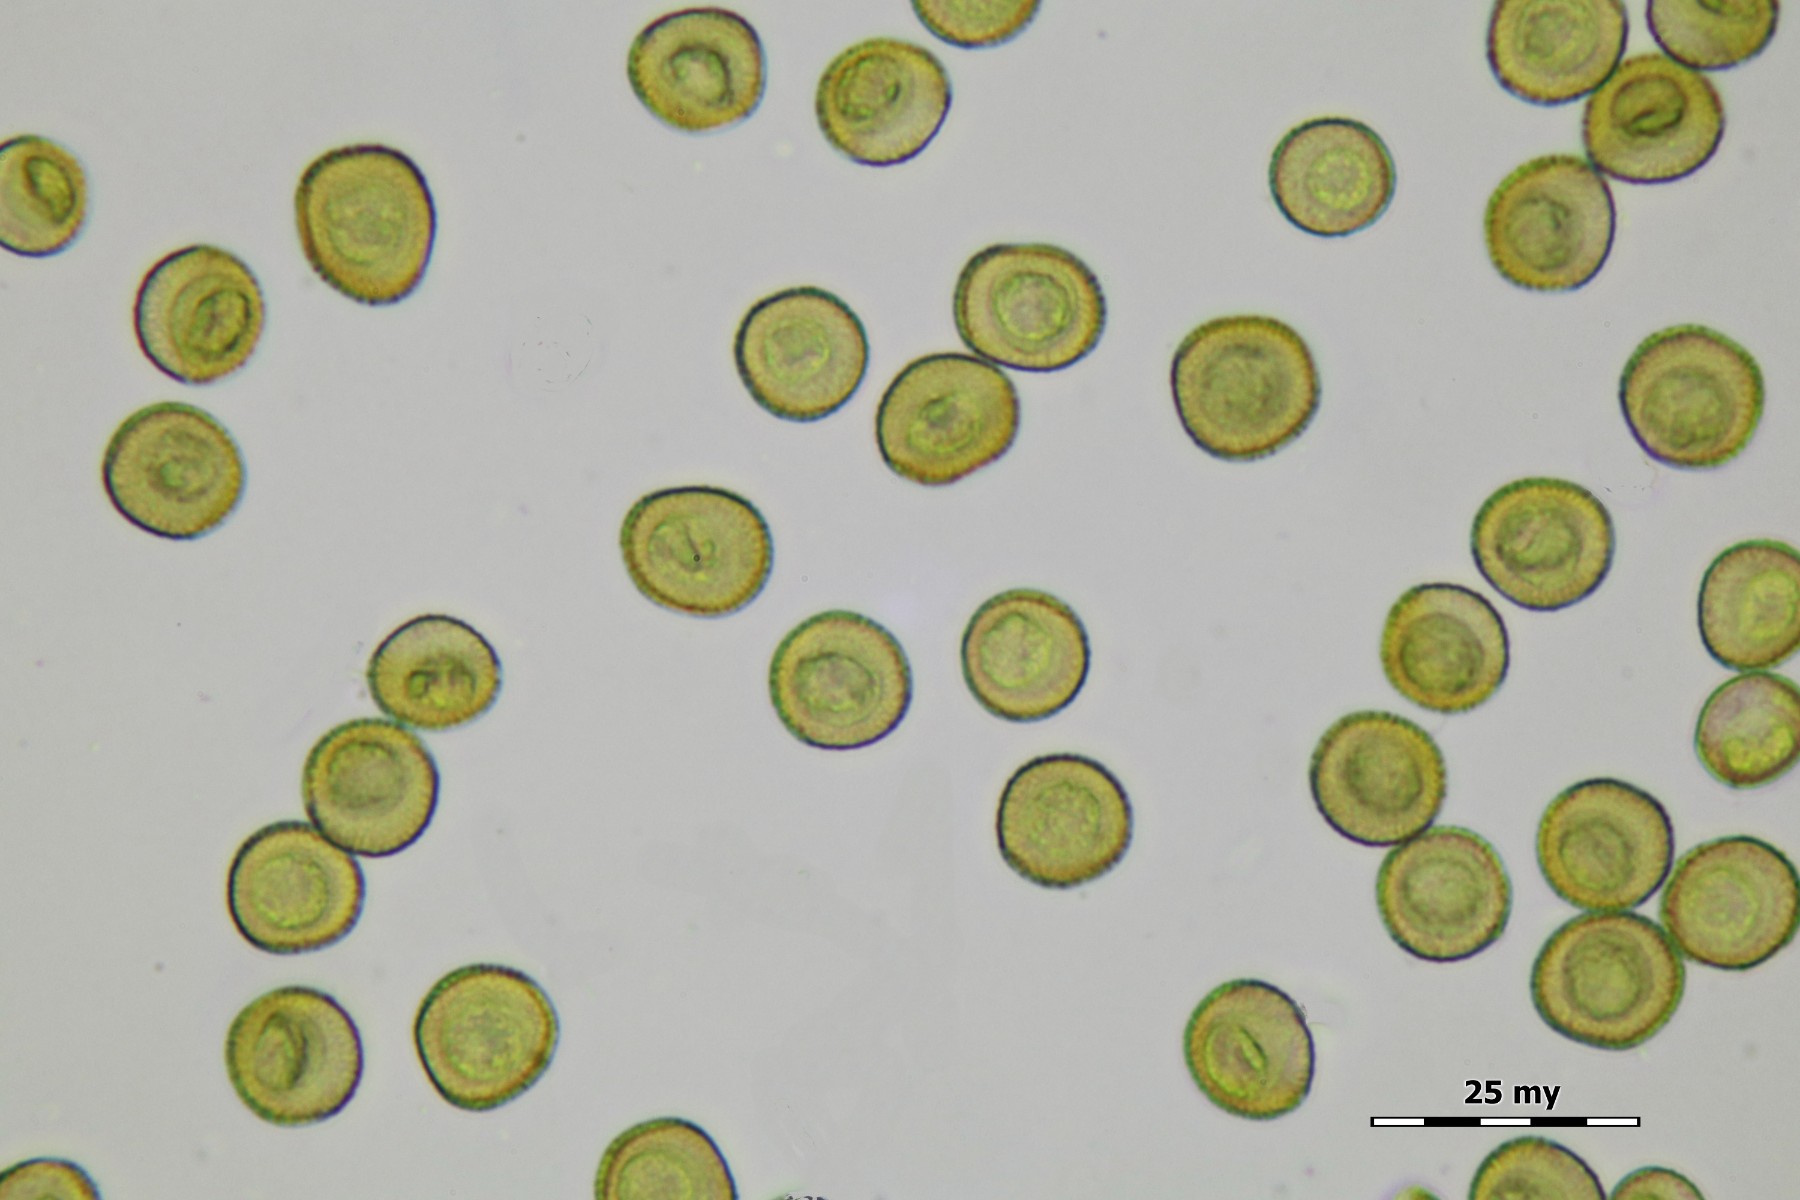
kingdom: Protozoa
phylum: Mycetozoa
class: Myxomycetes
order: Trichiales
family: Trichiaceae
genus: Trichia
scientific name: Trichia contorta
